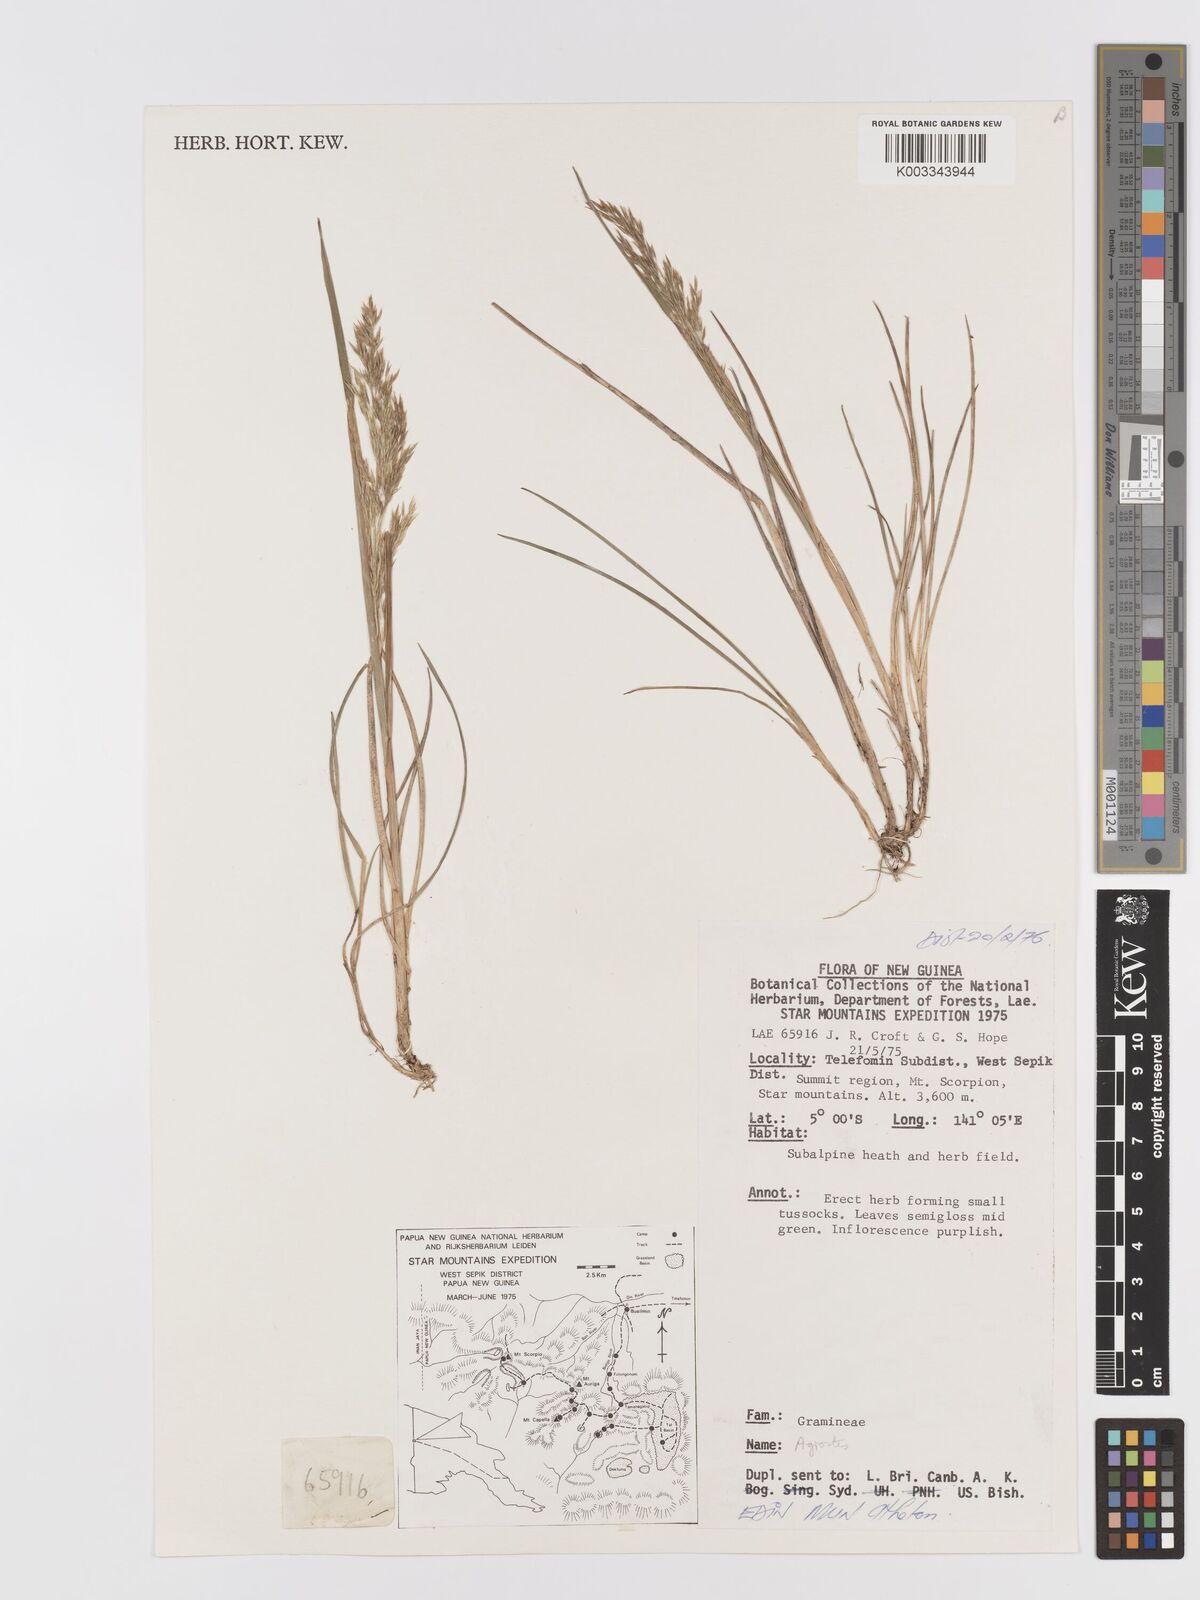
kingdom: Plantae
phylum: Tracheophyta
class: Liliopsida
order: Poales
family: Poaceae
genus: Agrostis
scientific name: Agrostis
